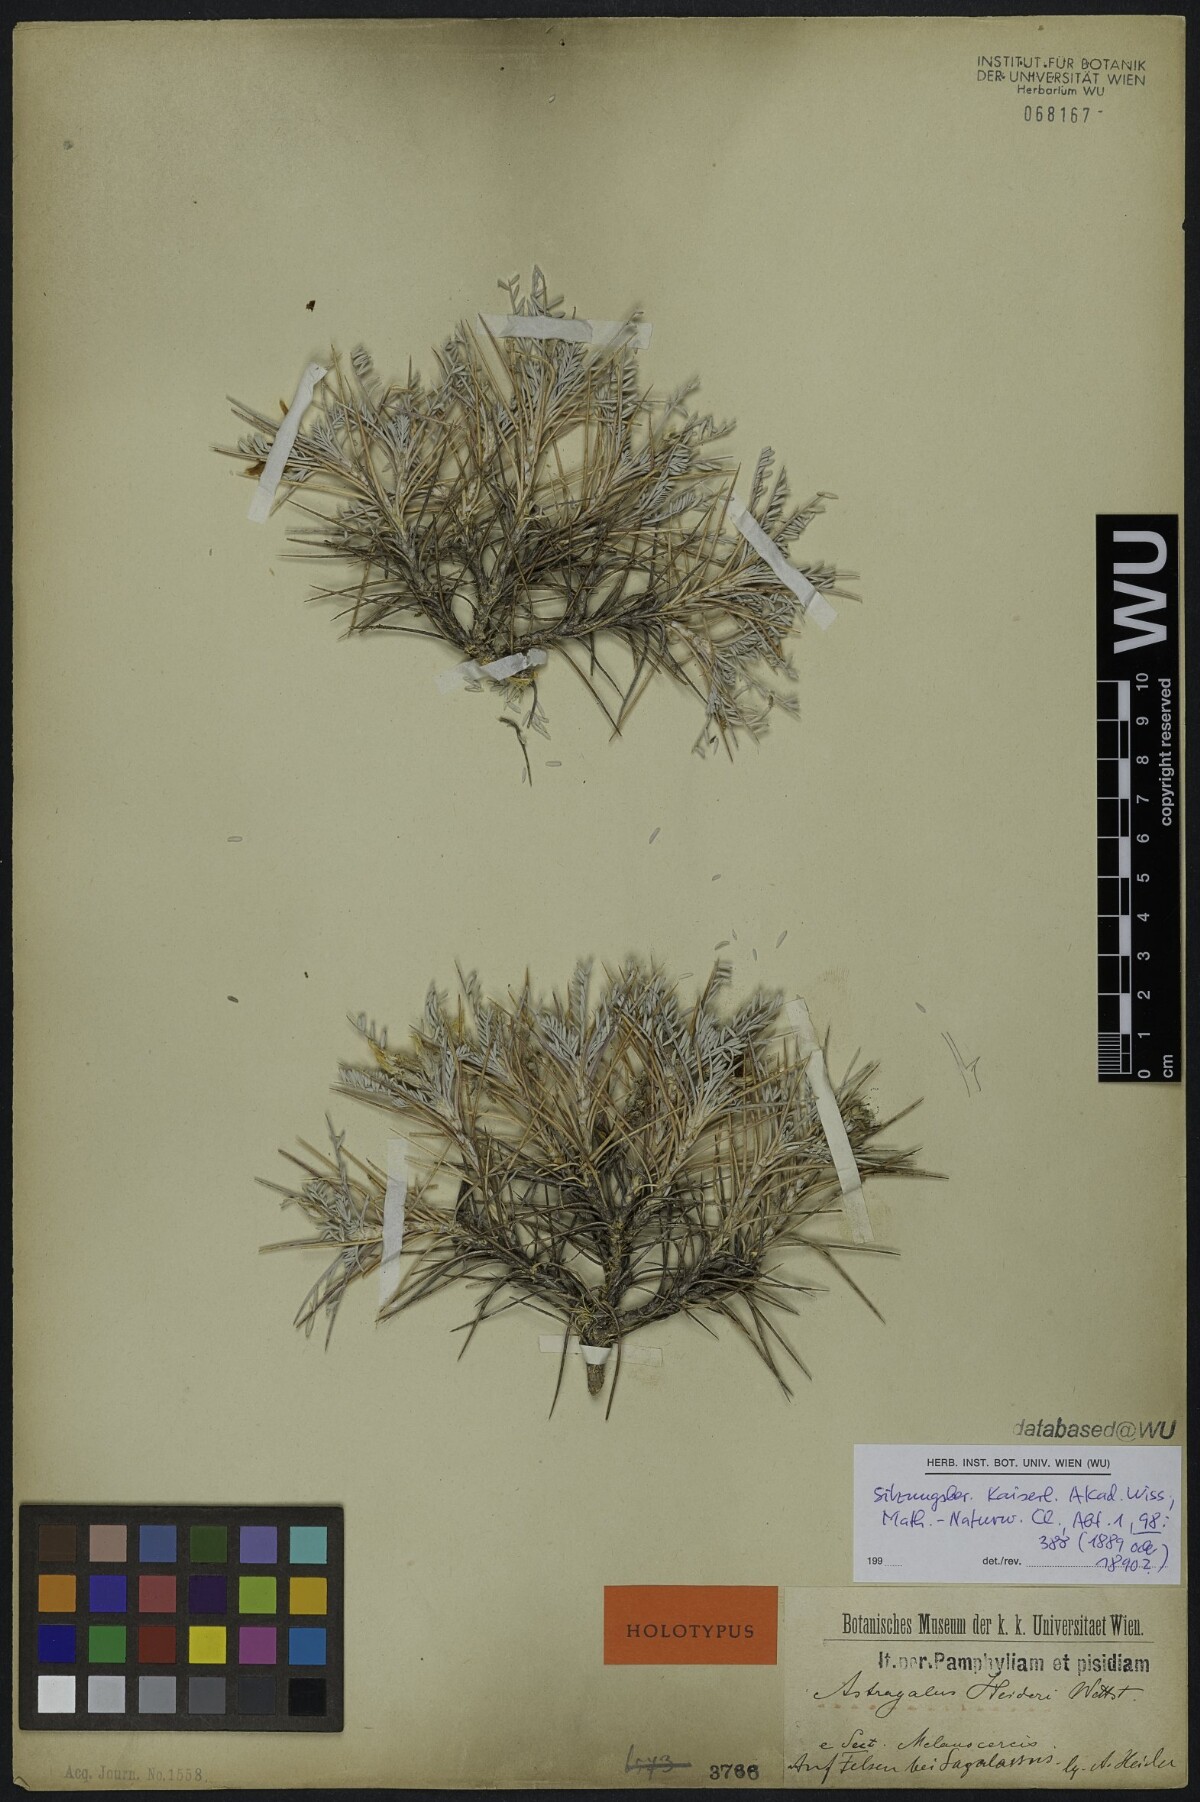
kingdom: Plantae
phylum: Tracheophyta
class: Magnoliopsida
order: Fabales
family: Fabaceae
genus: Astragalus
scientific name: Astragalus heideri
